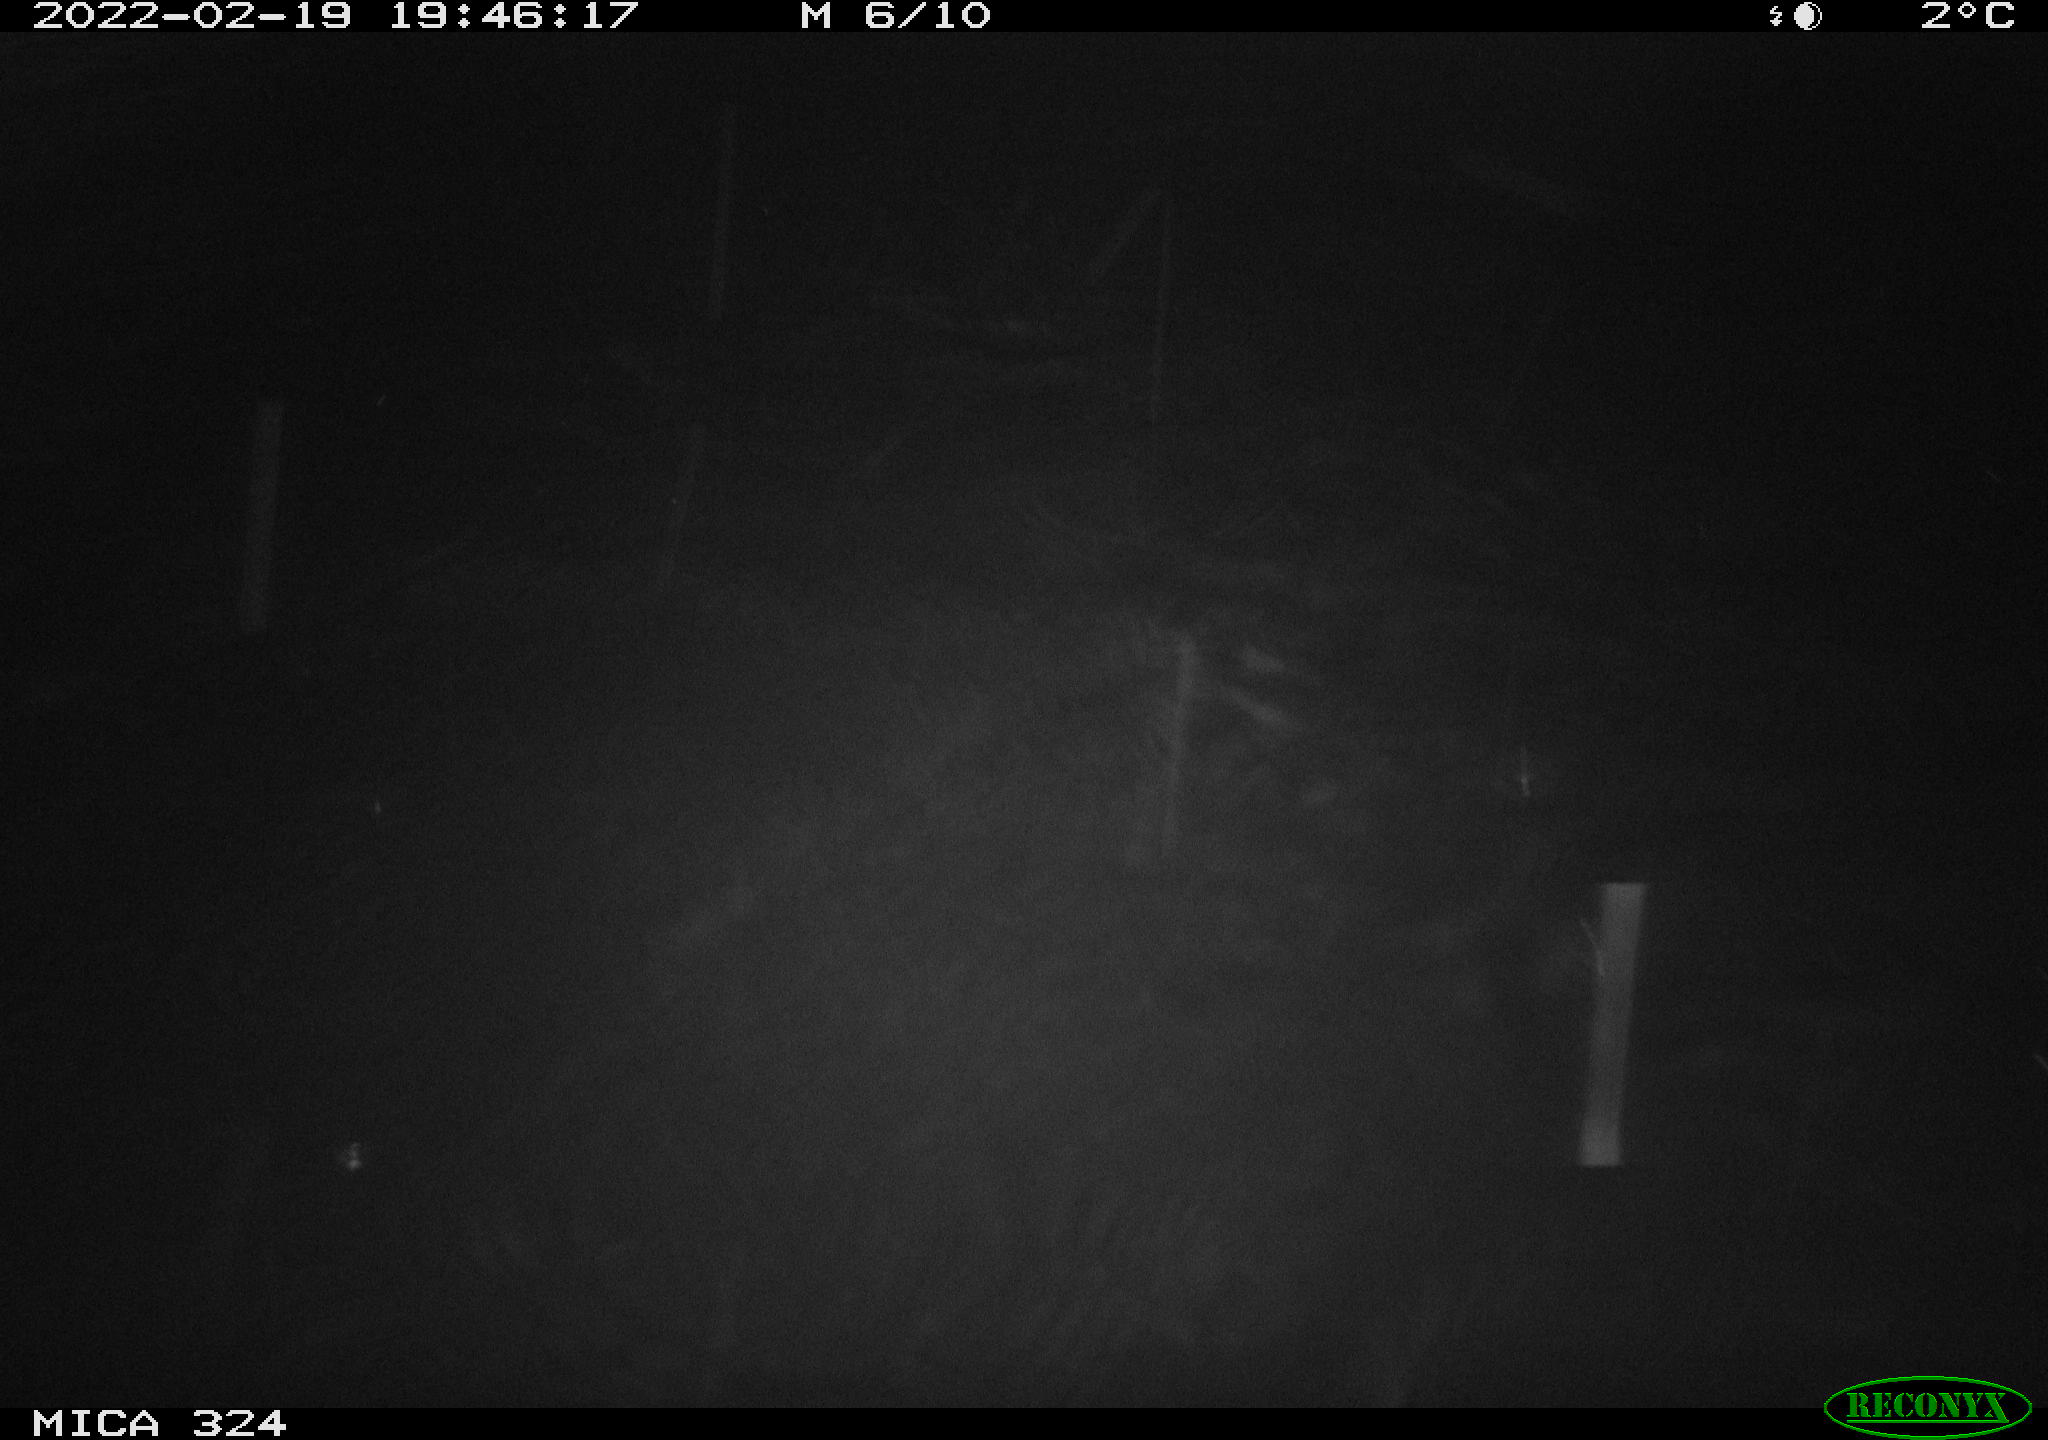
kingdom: Animalia
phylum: Chordata
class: Mammalia
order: Rodentia
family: Cricetidae
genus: Ondatra
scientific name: Ondatra zibethicus
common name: Muskrat
